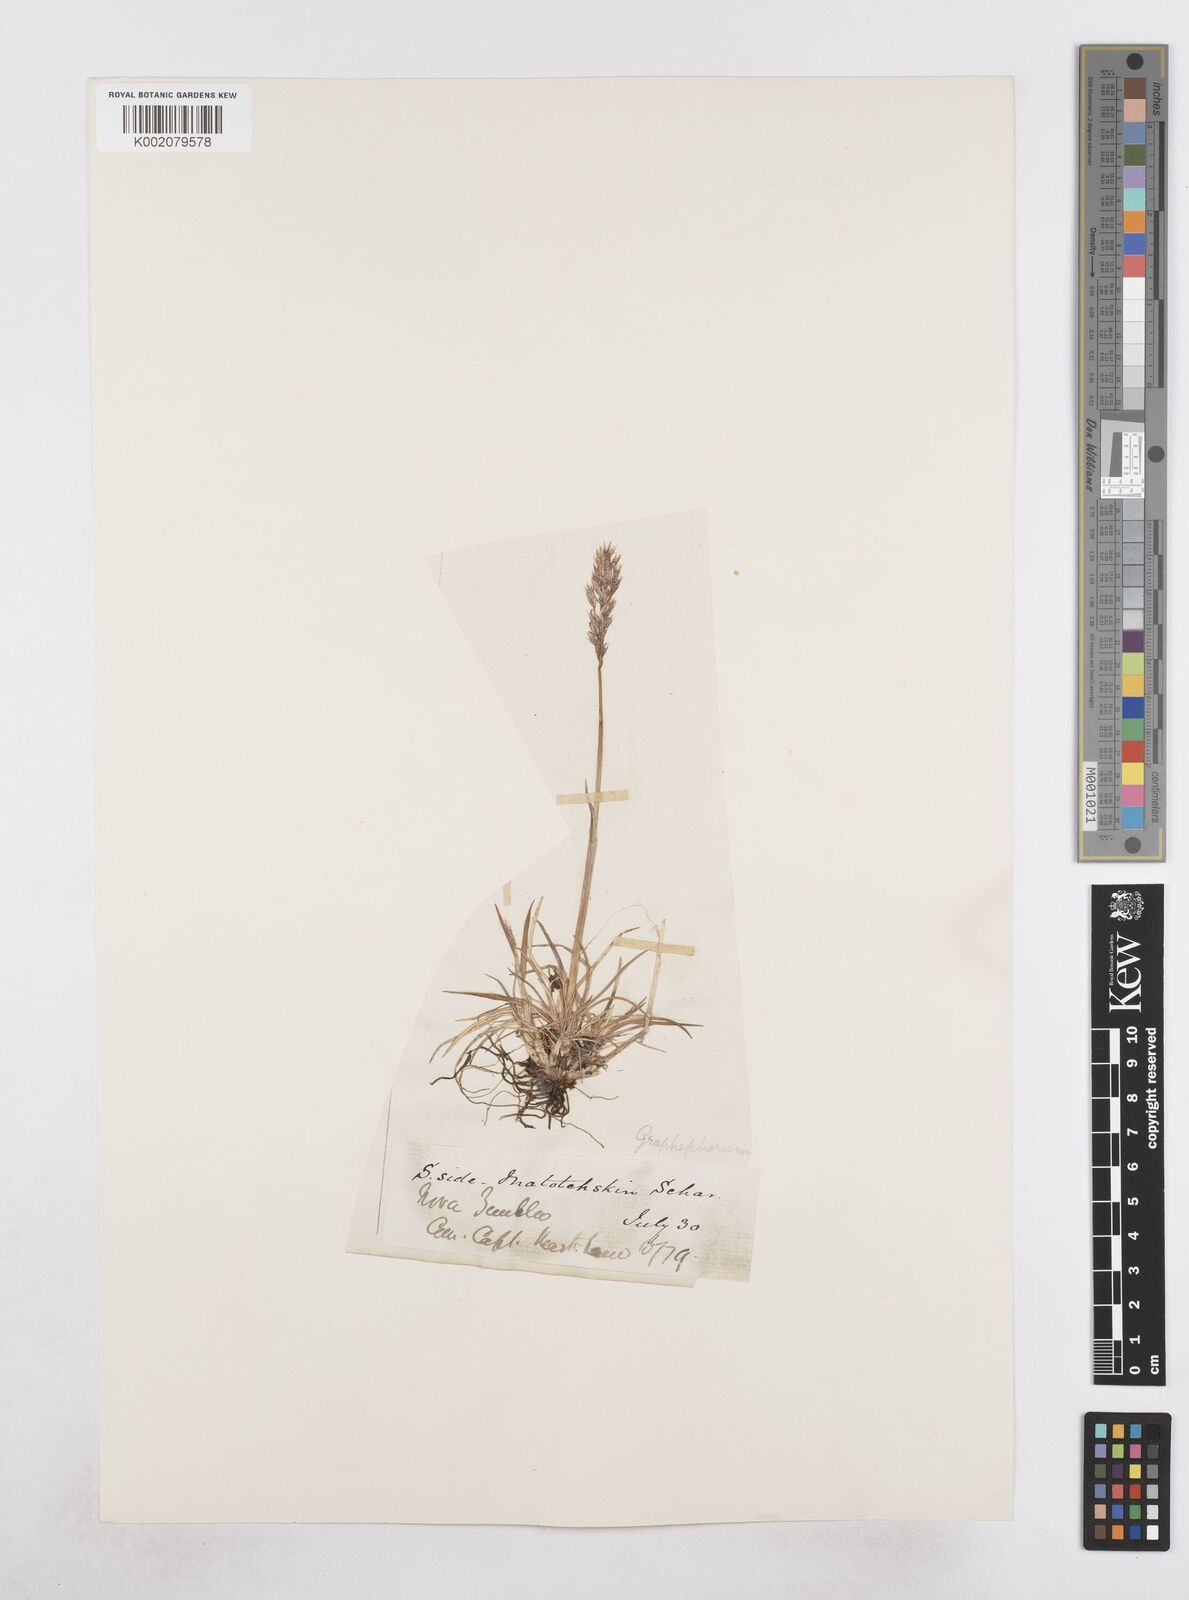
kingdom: Plantae
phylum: Tracheophyta
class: Liliopsida
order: Poales
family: Poaceae
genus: Dupontia
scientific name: Dupontia fisheri
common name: Tundra grass
